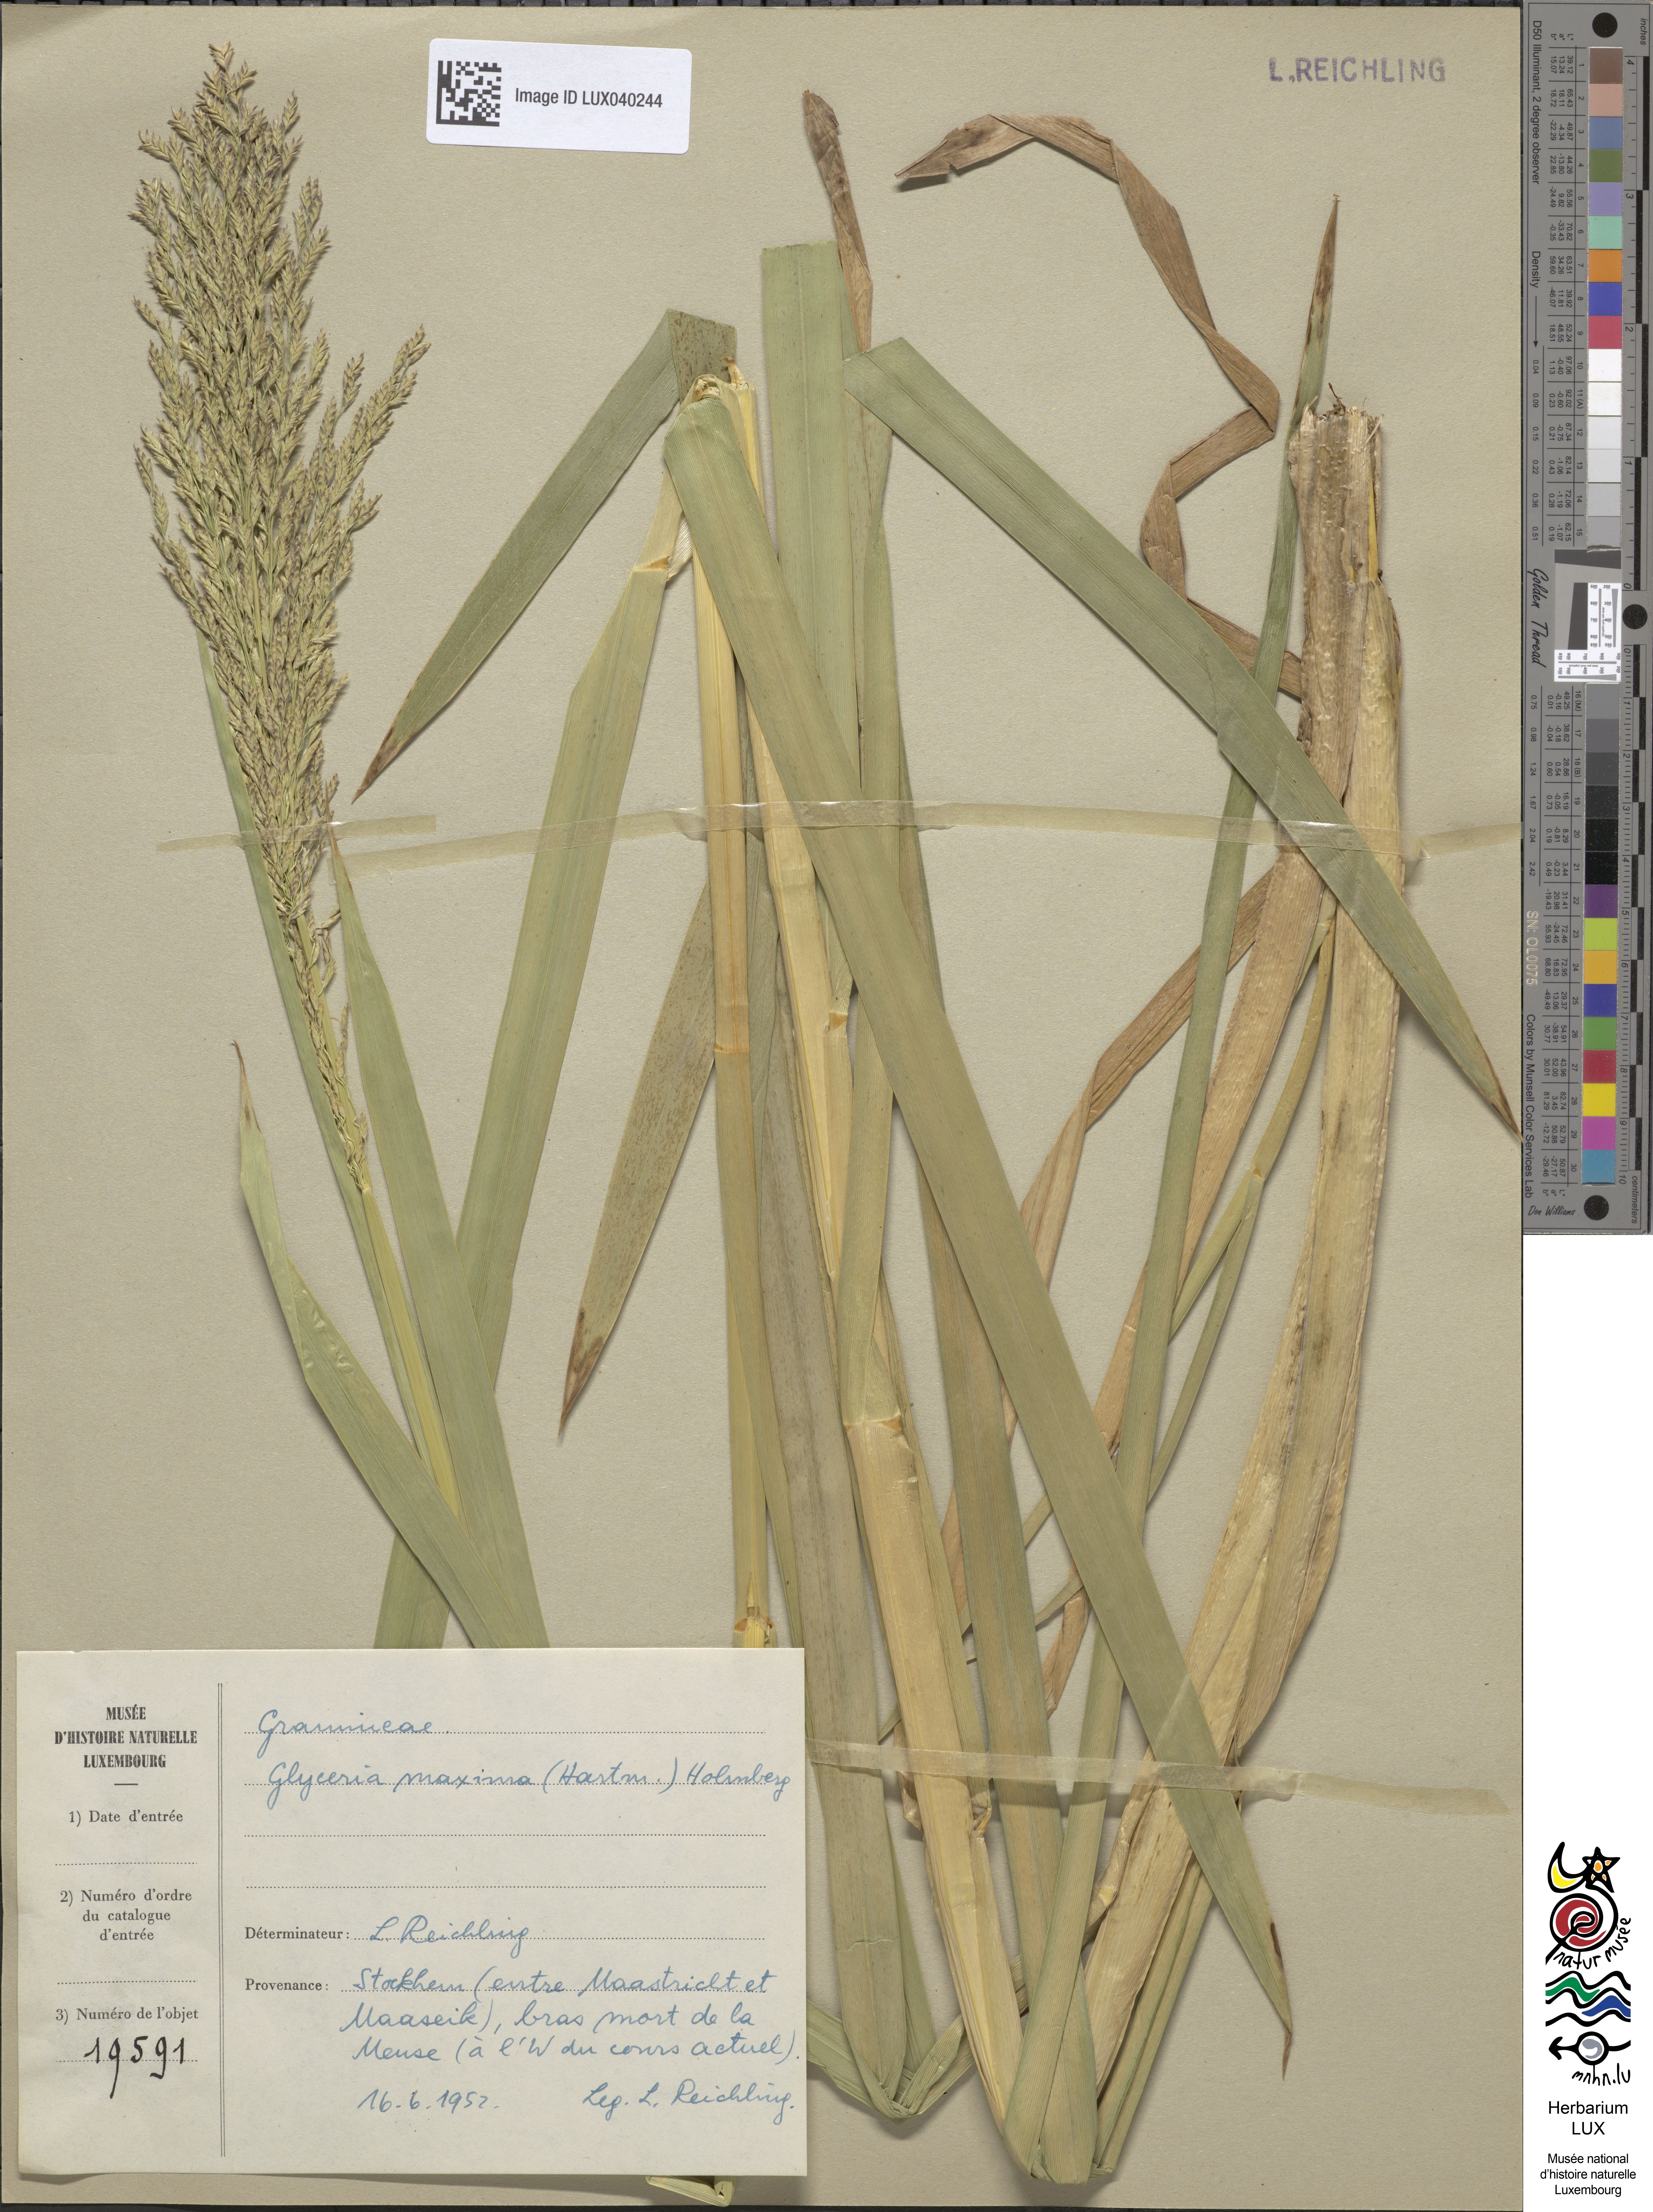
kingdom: Plantae
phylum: Tracheophyta
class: Liliopsida
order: Poales
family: Poaceae
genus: Glyceria
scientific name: Glyceria maxima
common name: Reed mannagrass
